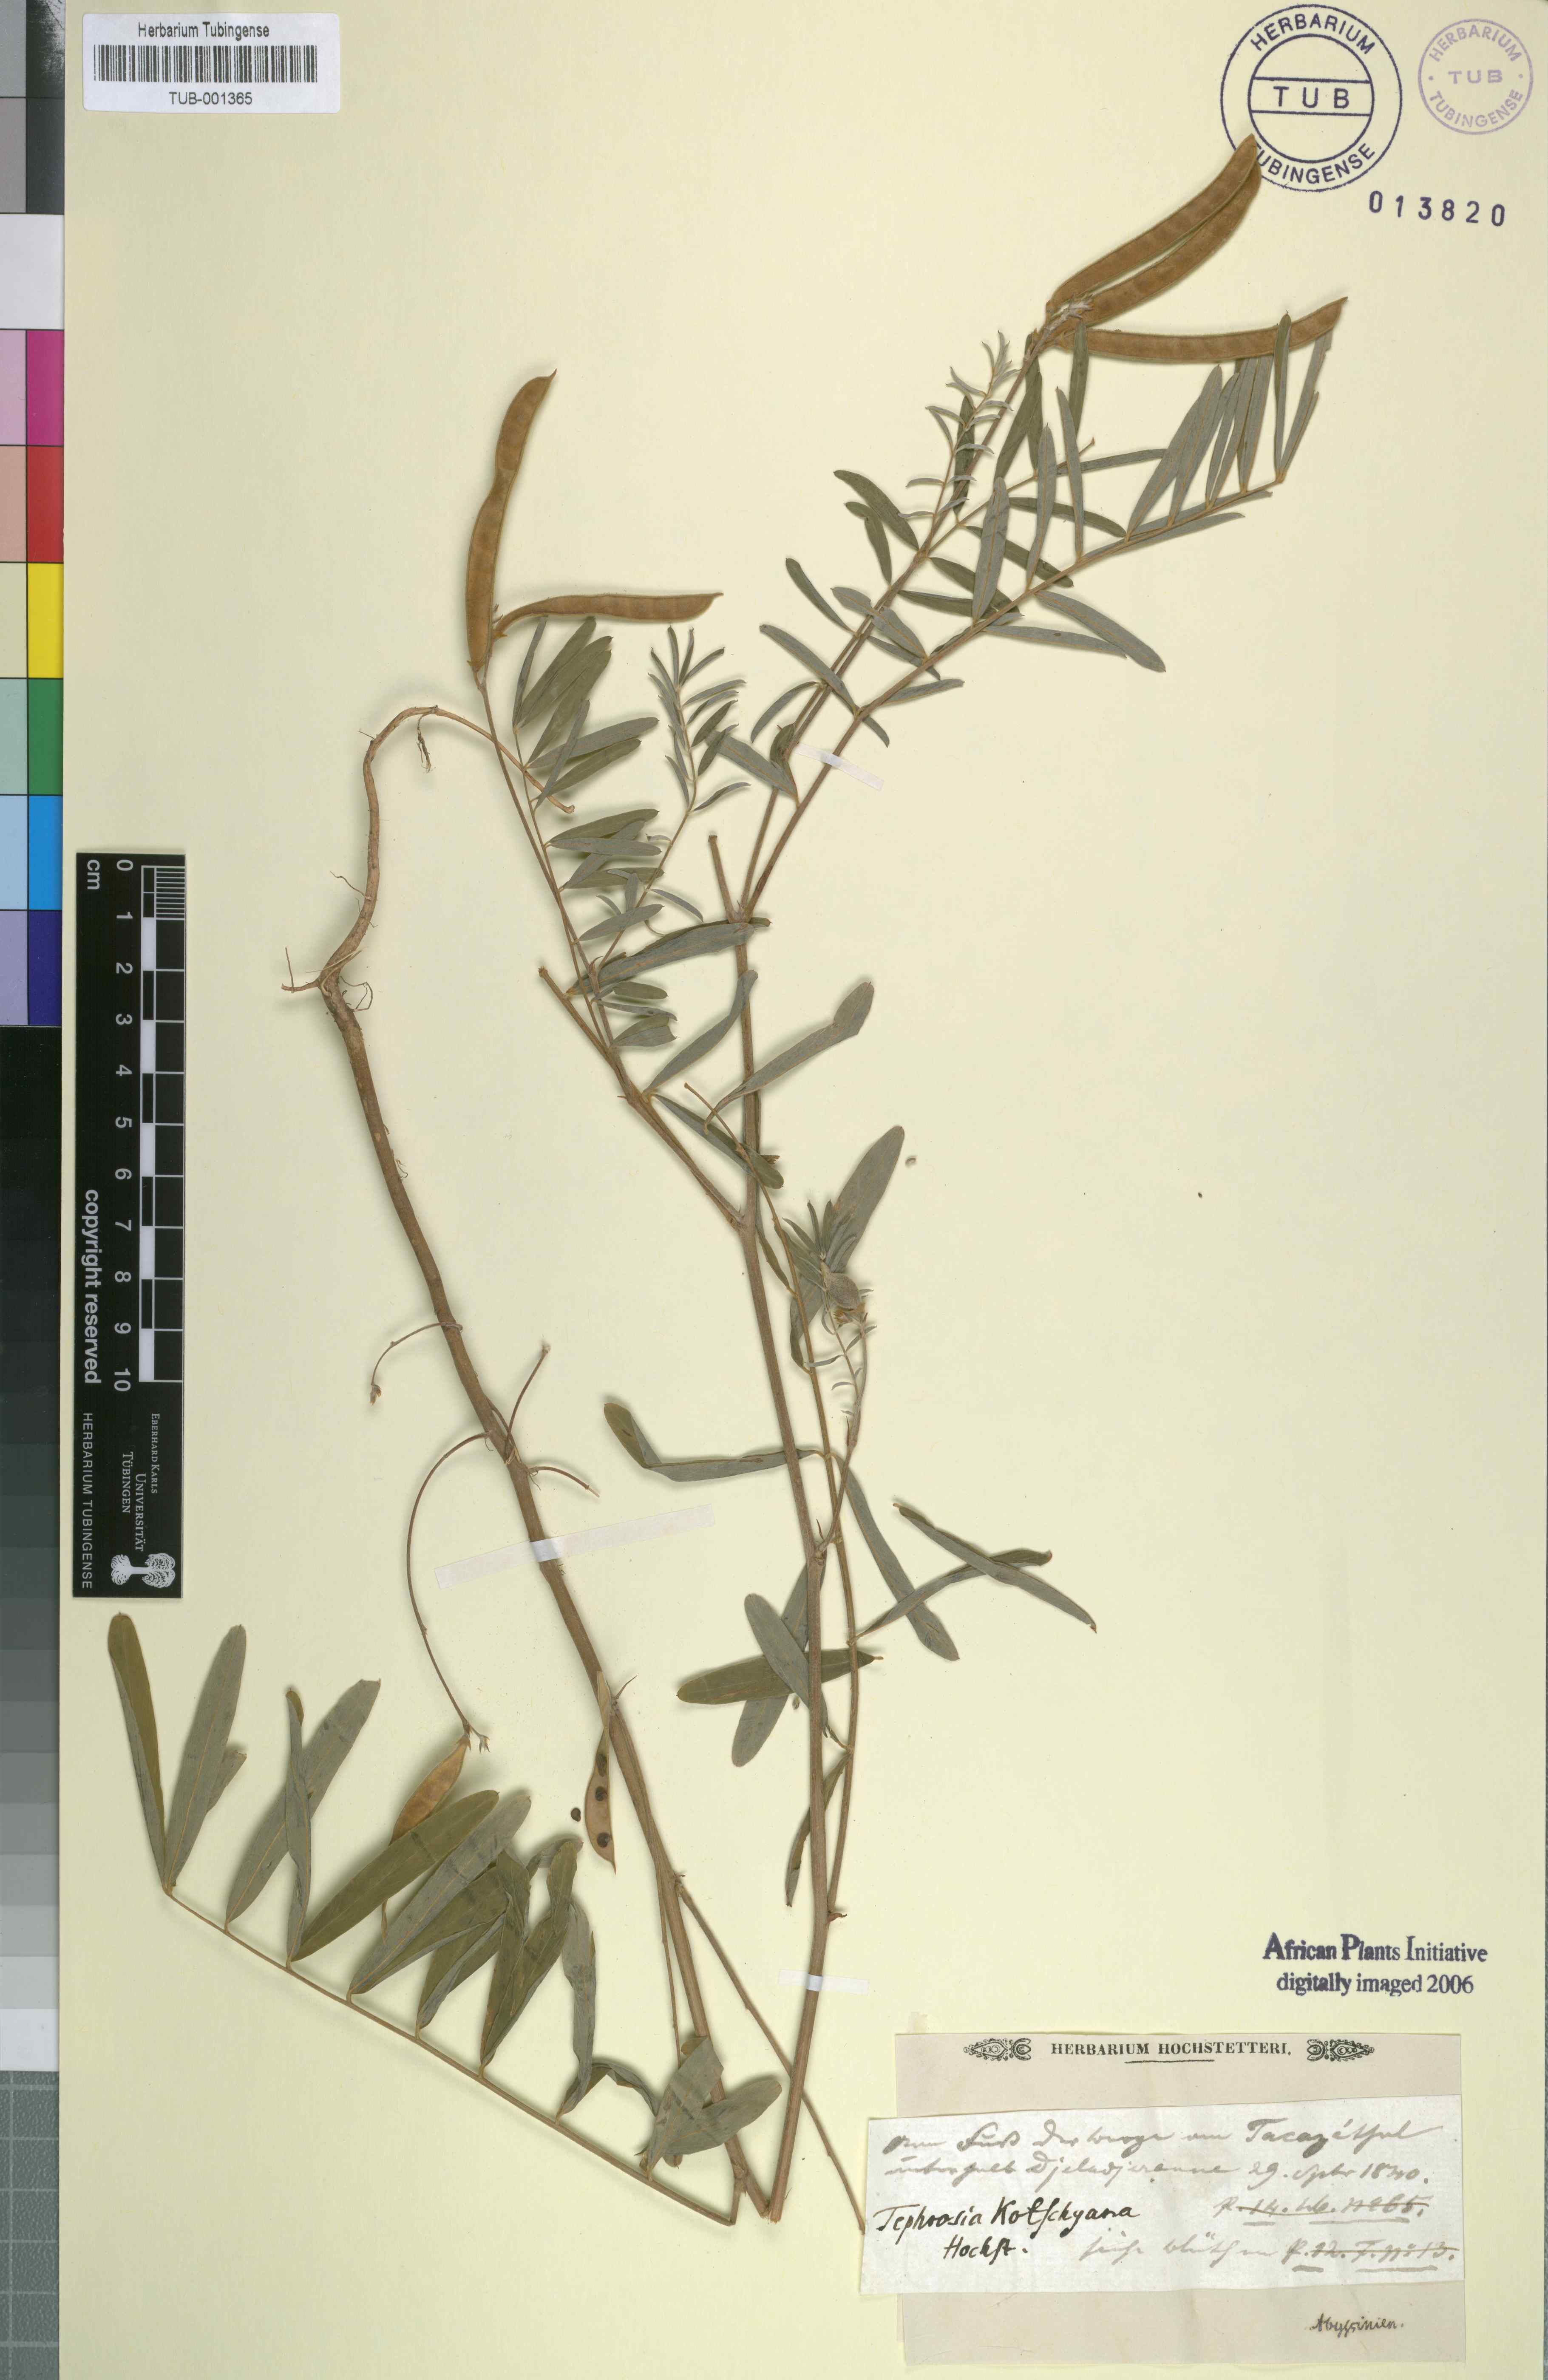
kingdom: Plantae
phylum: Tracheophyta
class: Magnoliopsida
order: Fabales
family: Fabaceae
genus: Tephrosia
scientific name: Tephrosia bracteolata
